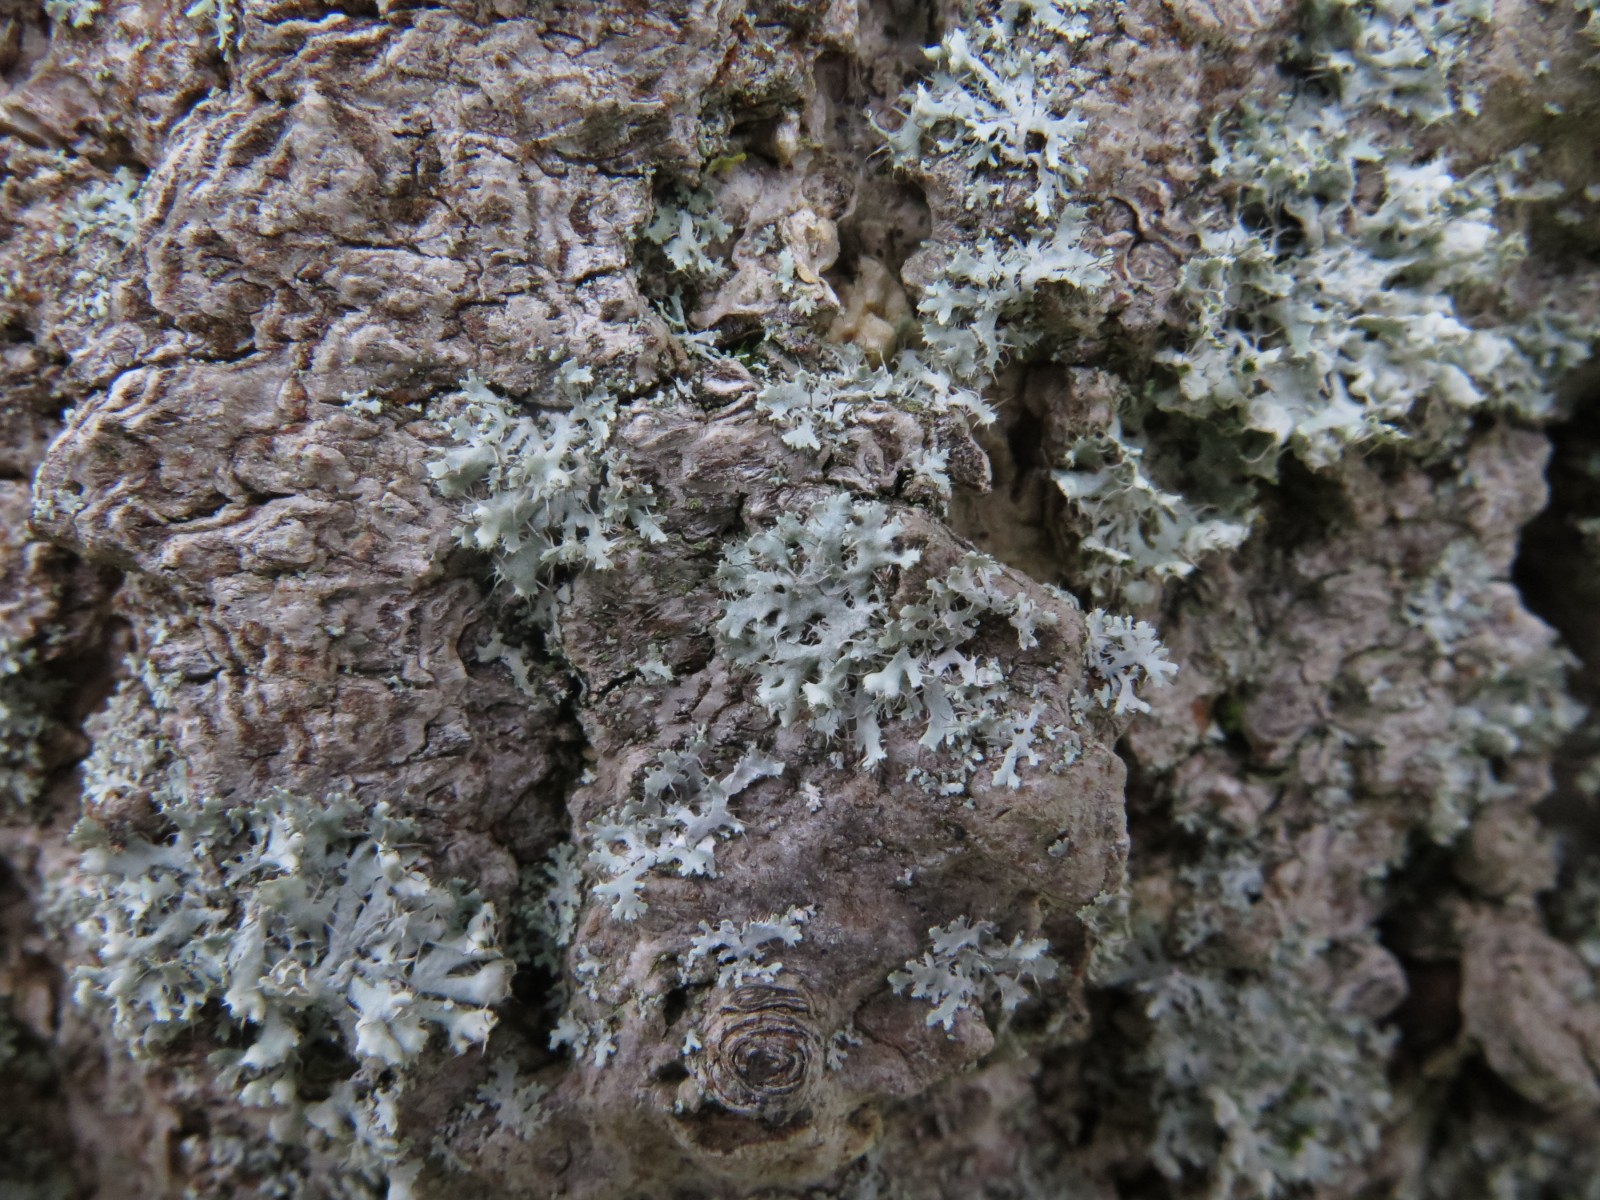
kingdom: Fungi
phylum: Ascomycota
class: Lecanoromycetes
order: Caliciales
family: Physciaceae
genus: Physcia
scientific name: Physcia tenella
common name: spæd rosetlav
